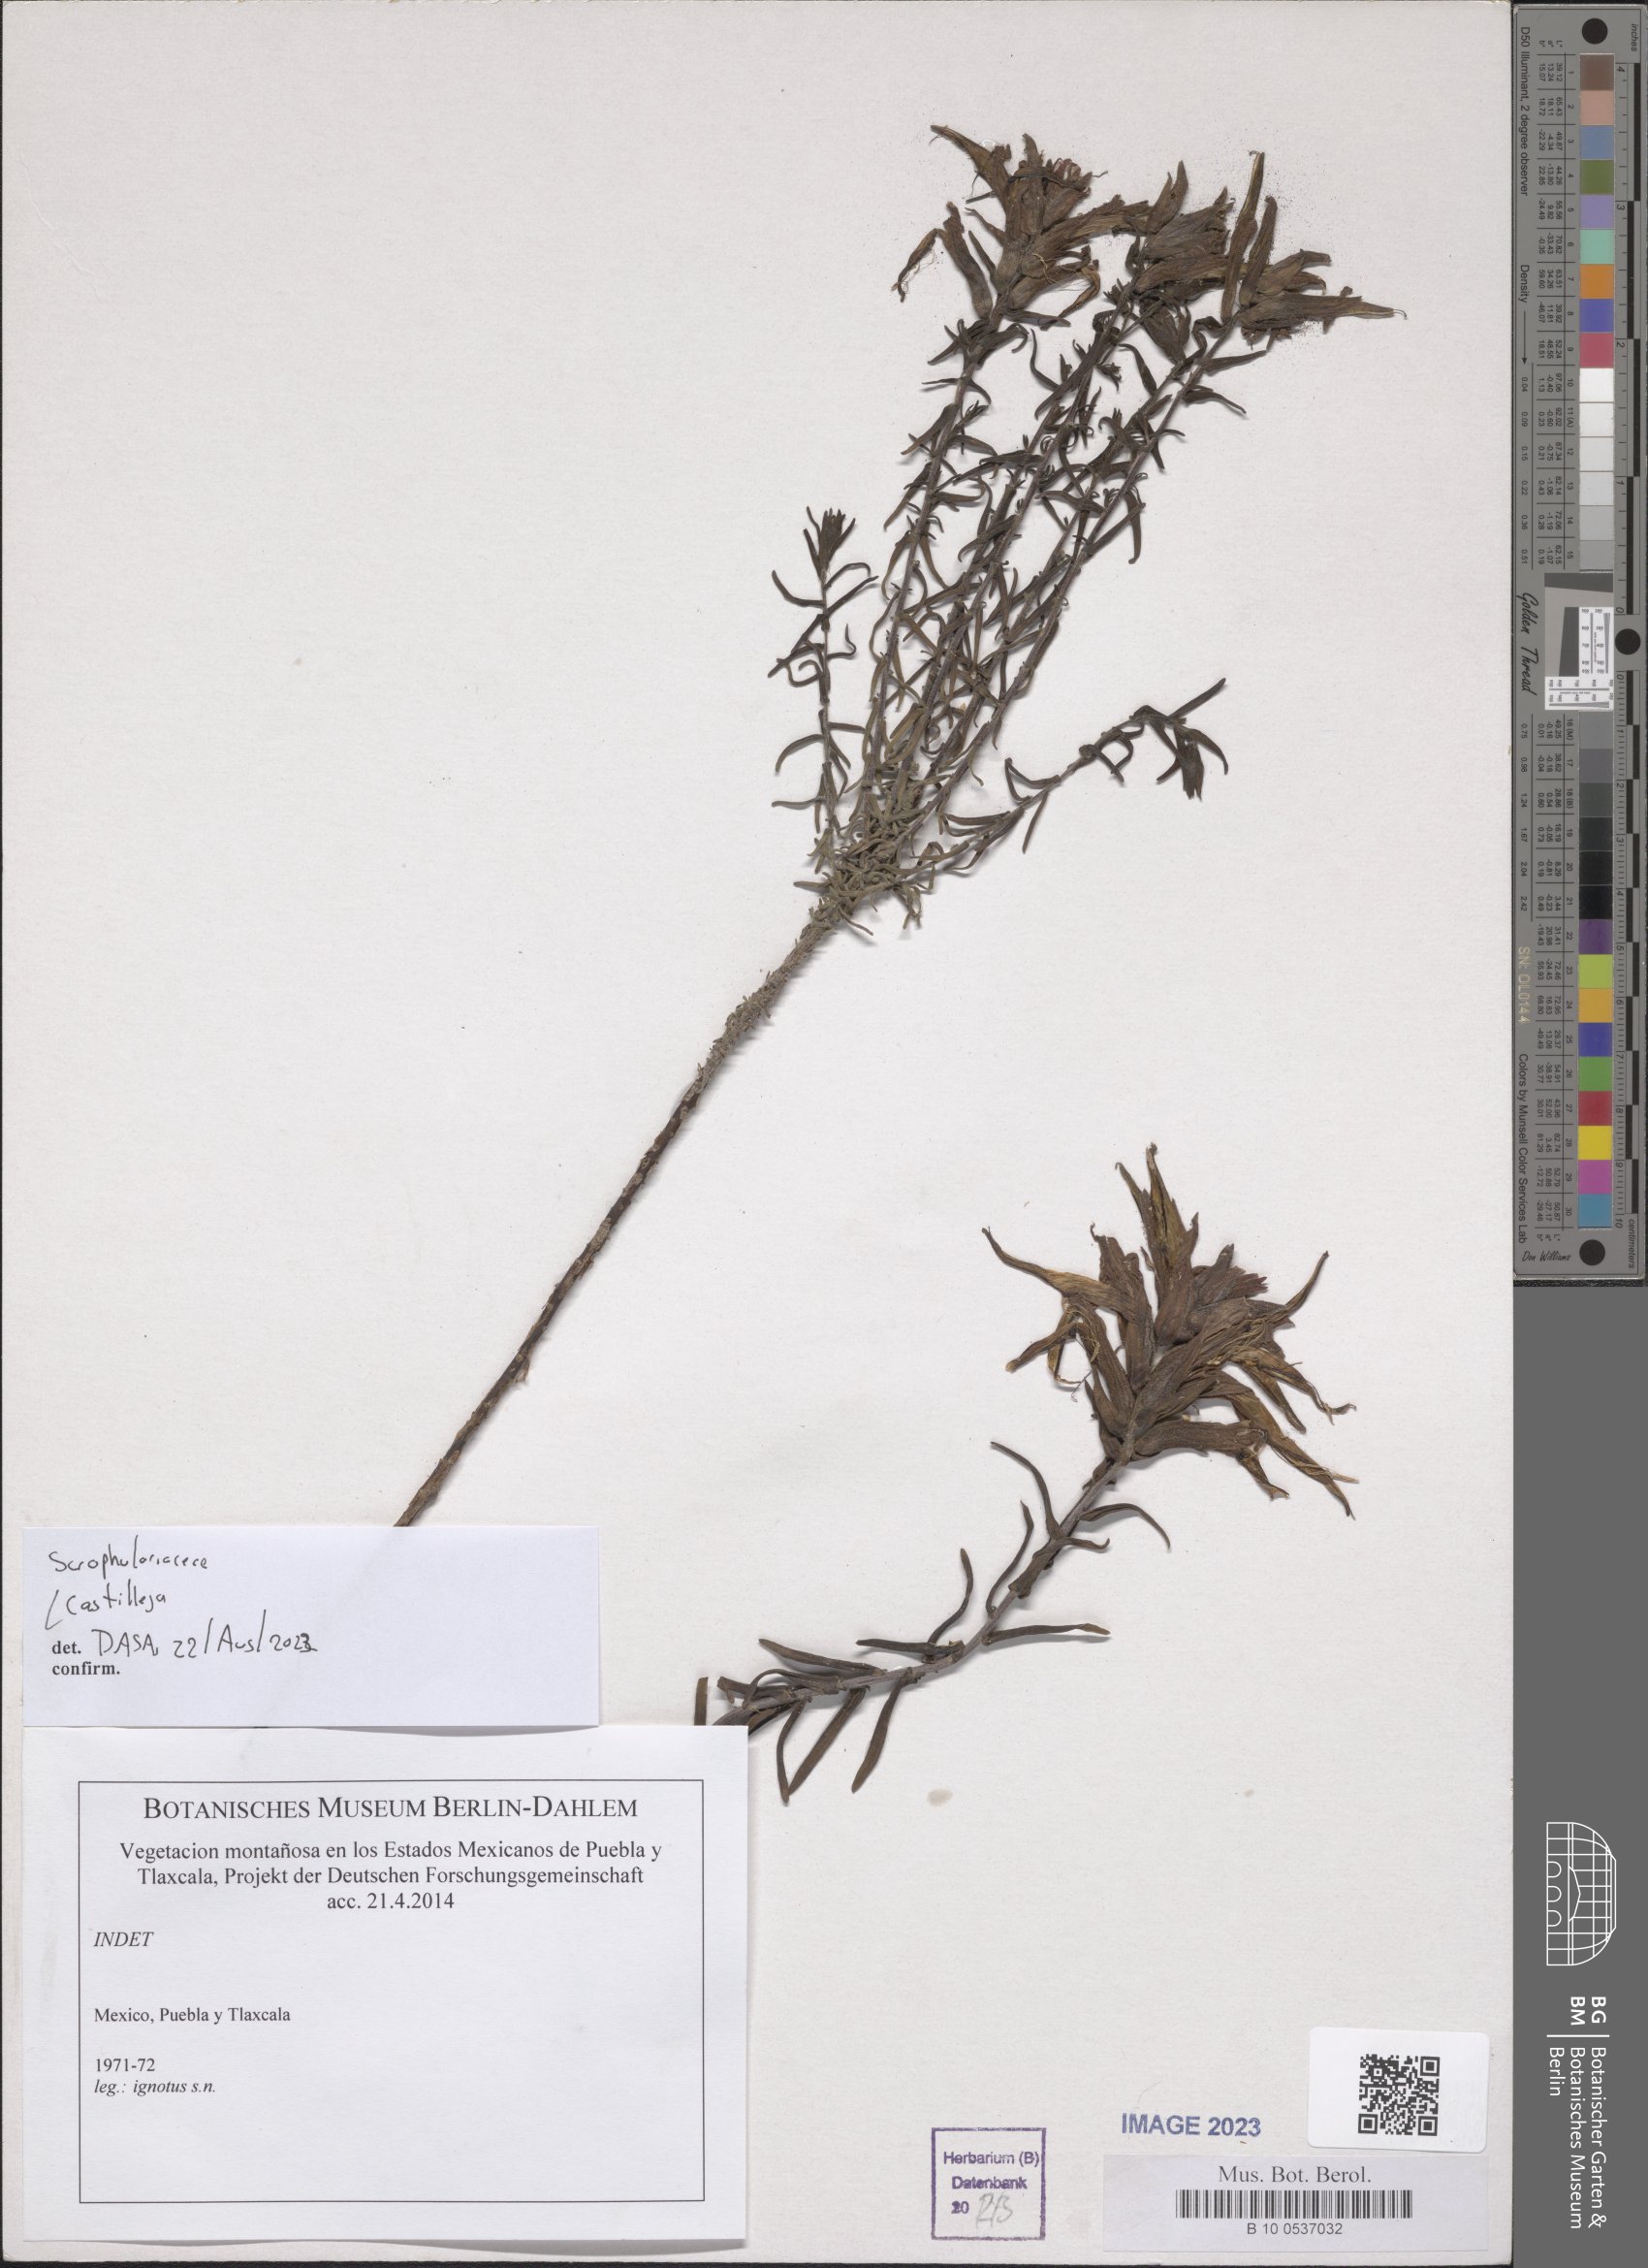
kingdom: Plantae
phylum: Tracheophyta
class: Magnoliopsida
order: Lamiales
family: Orobanchaceae
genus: Castilleja
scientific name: Castilleja
